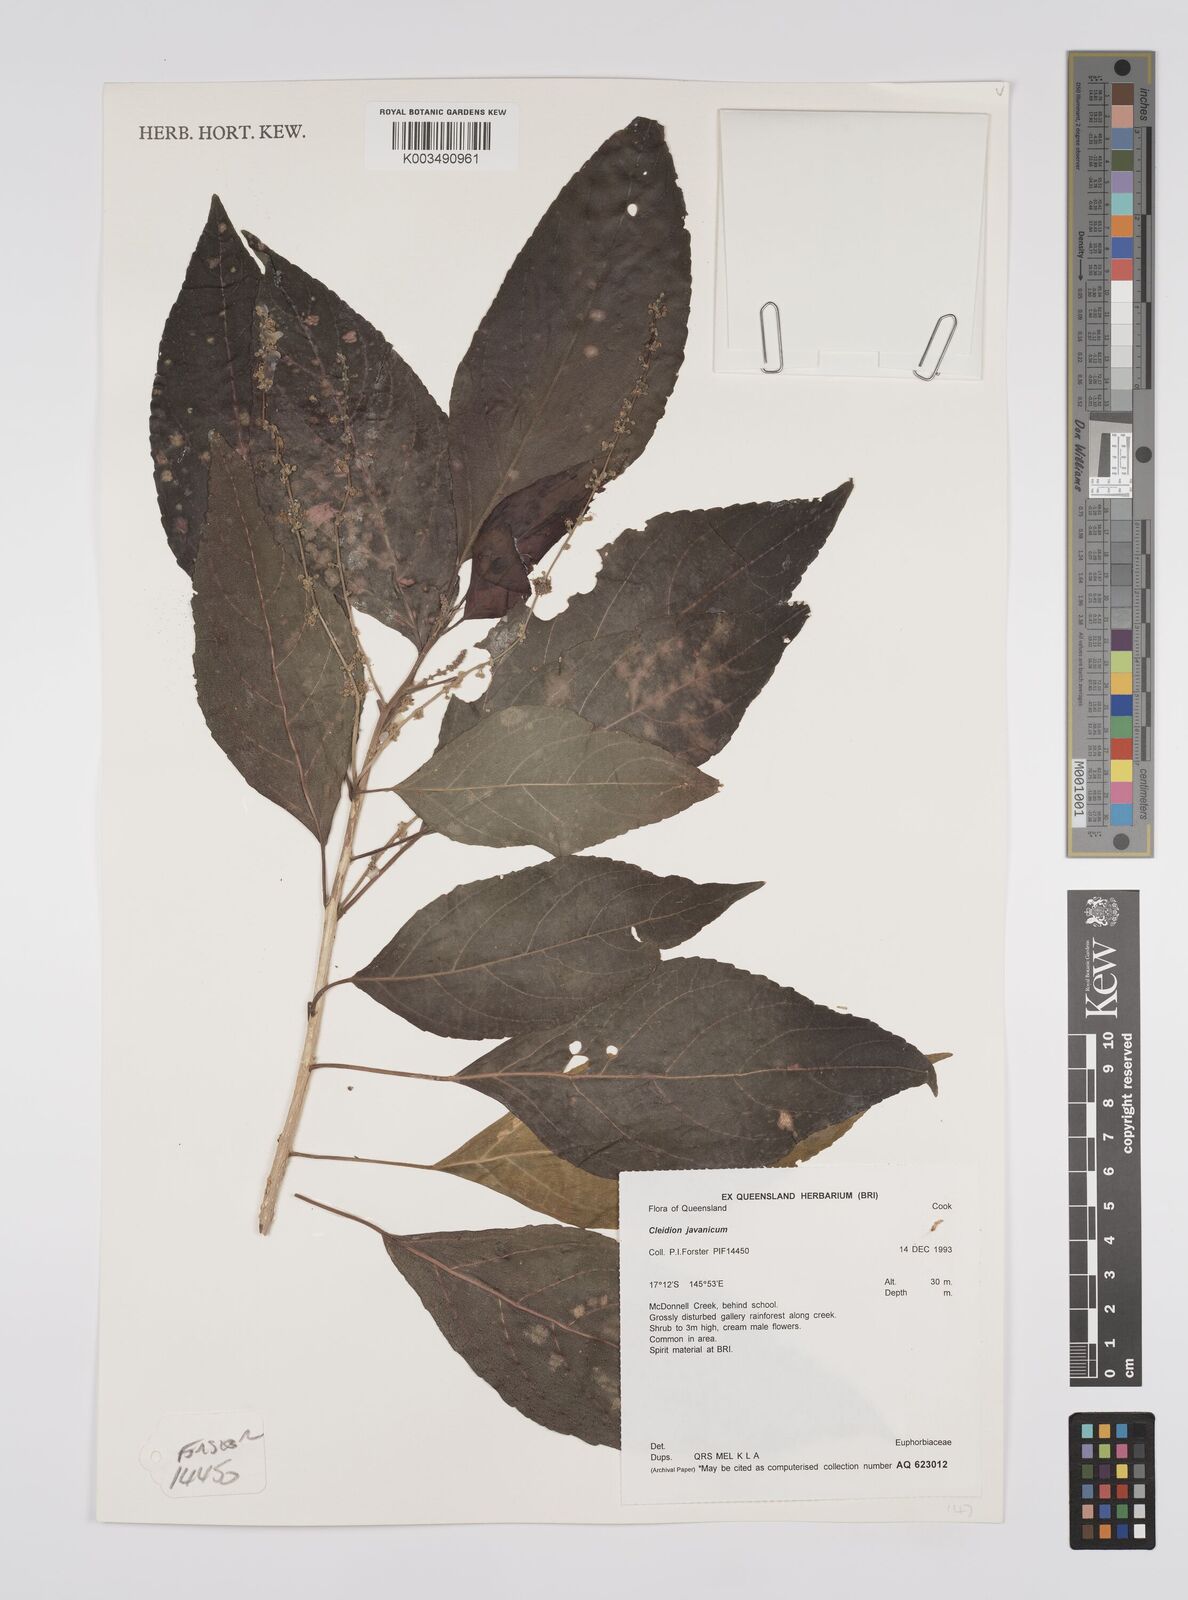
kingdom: Plantae
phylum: Tracheophyta
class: Magnoliopsida
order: Malpighiales
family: Euphorbiaceae
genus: Cleidion
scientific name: Cleidion javanicum
